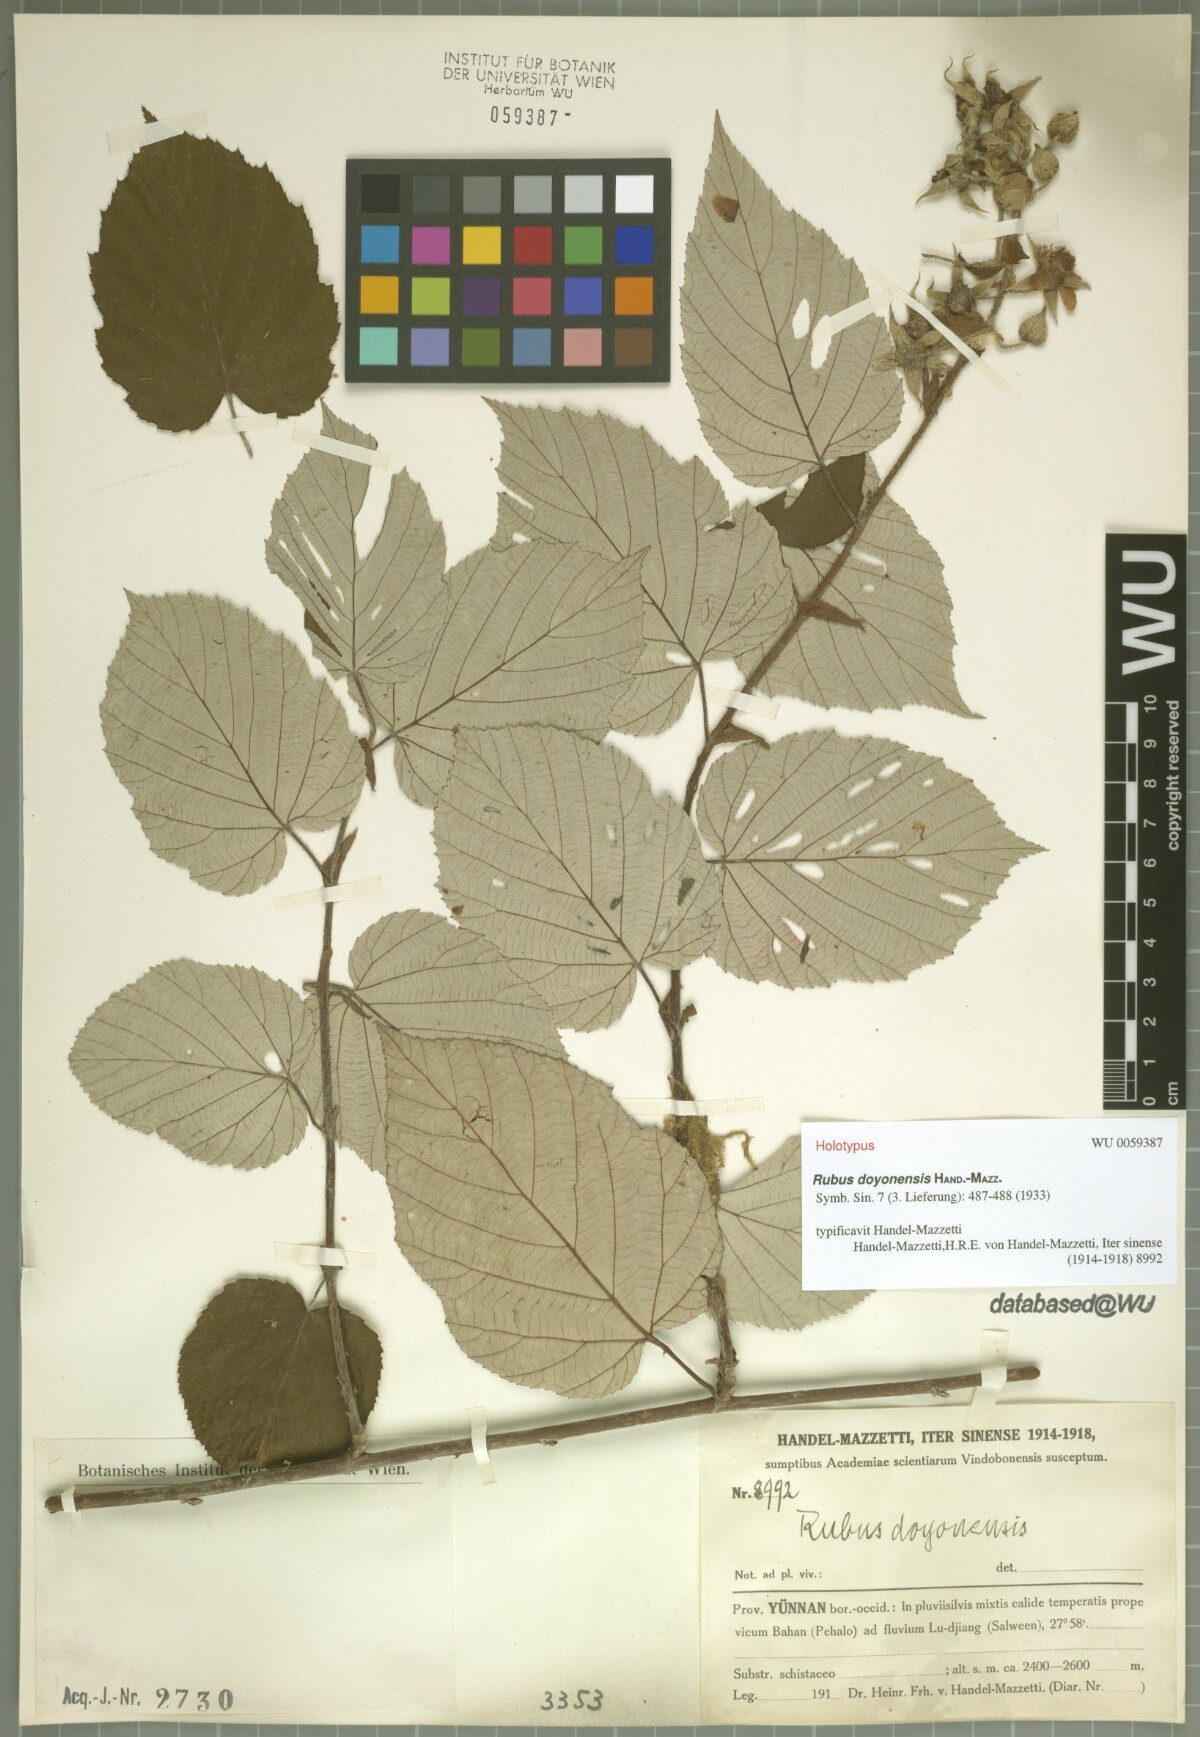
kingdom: Plantae
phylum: Tracheophyta
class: Magnoliopsida
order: Rosales
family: Rosaceae
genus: Rubus
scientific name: Rubus doyonensis
